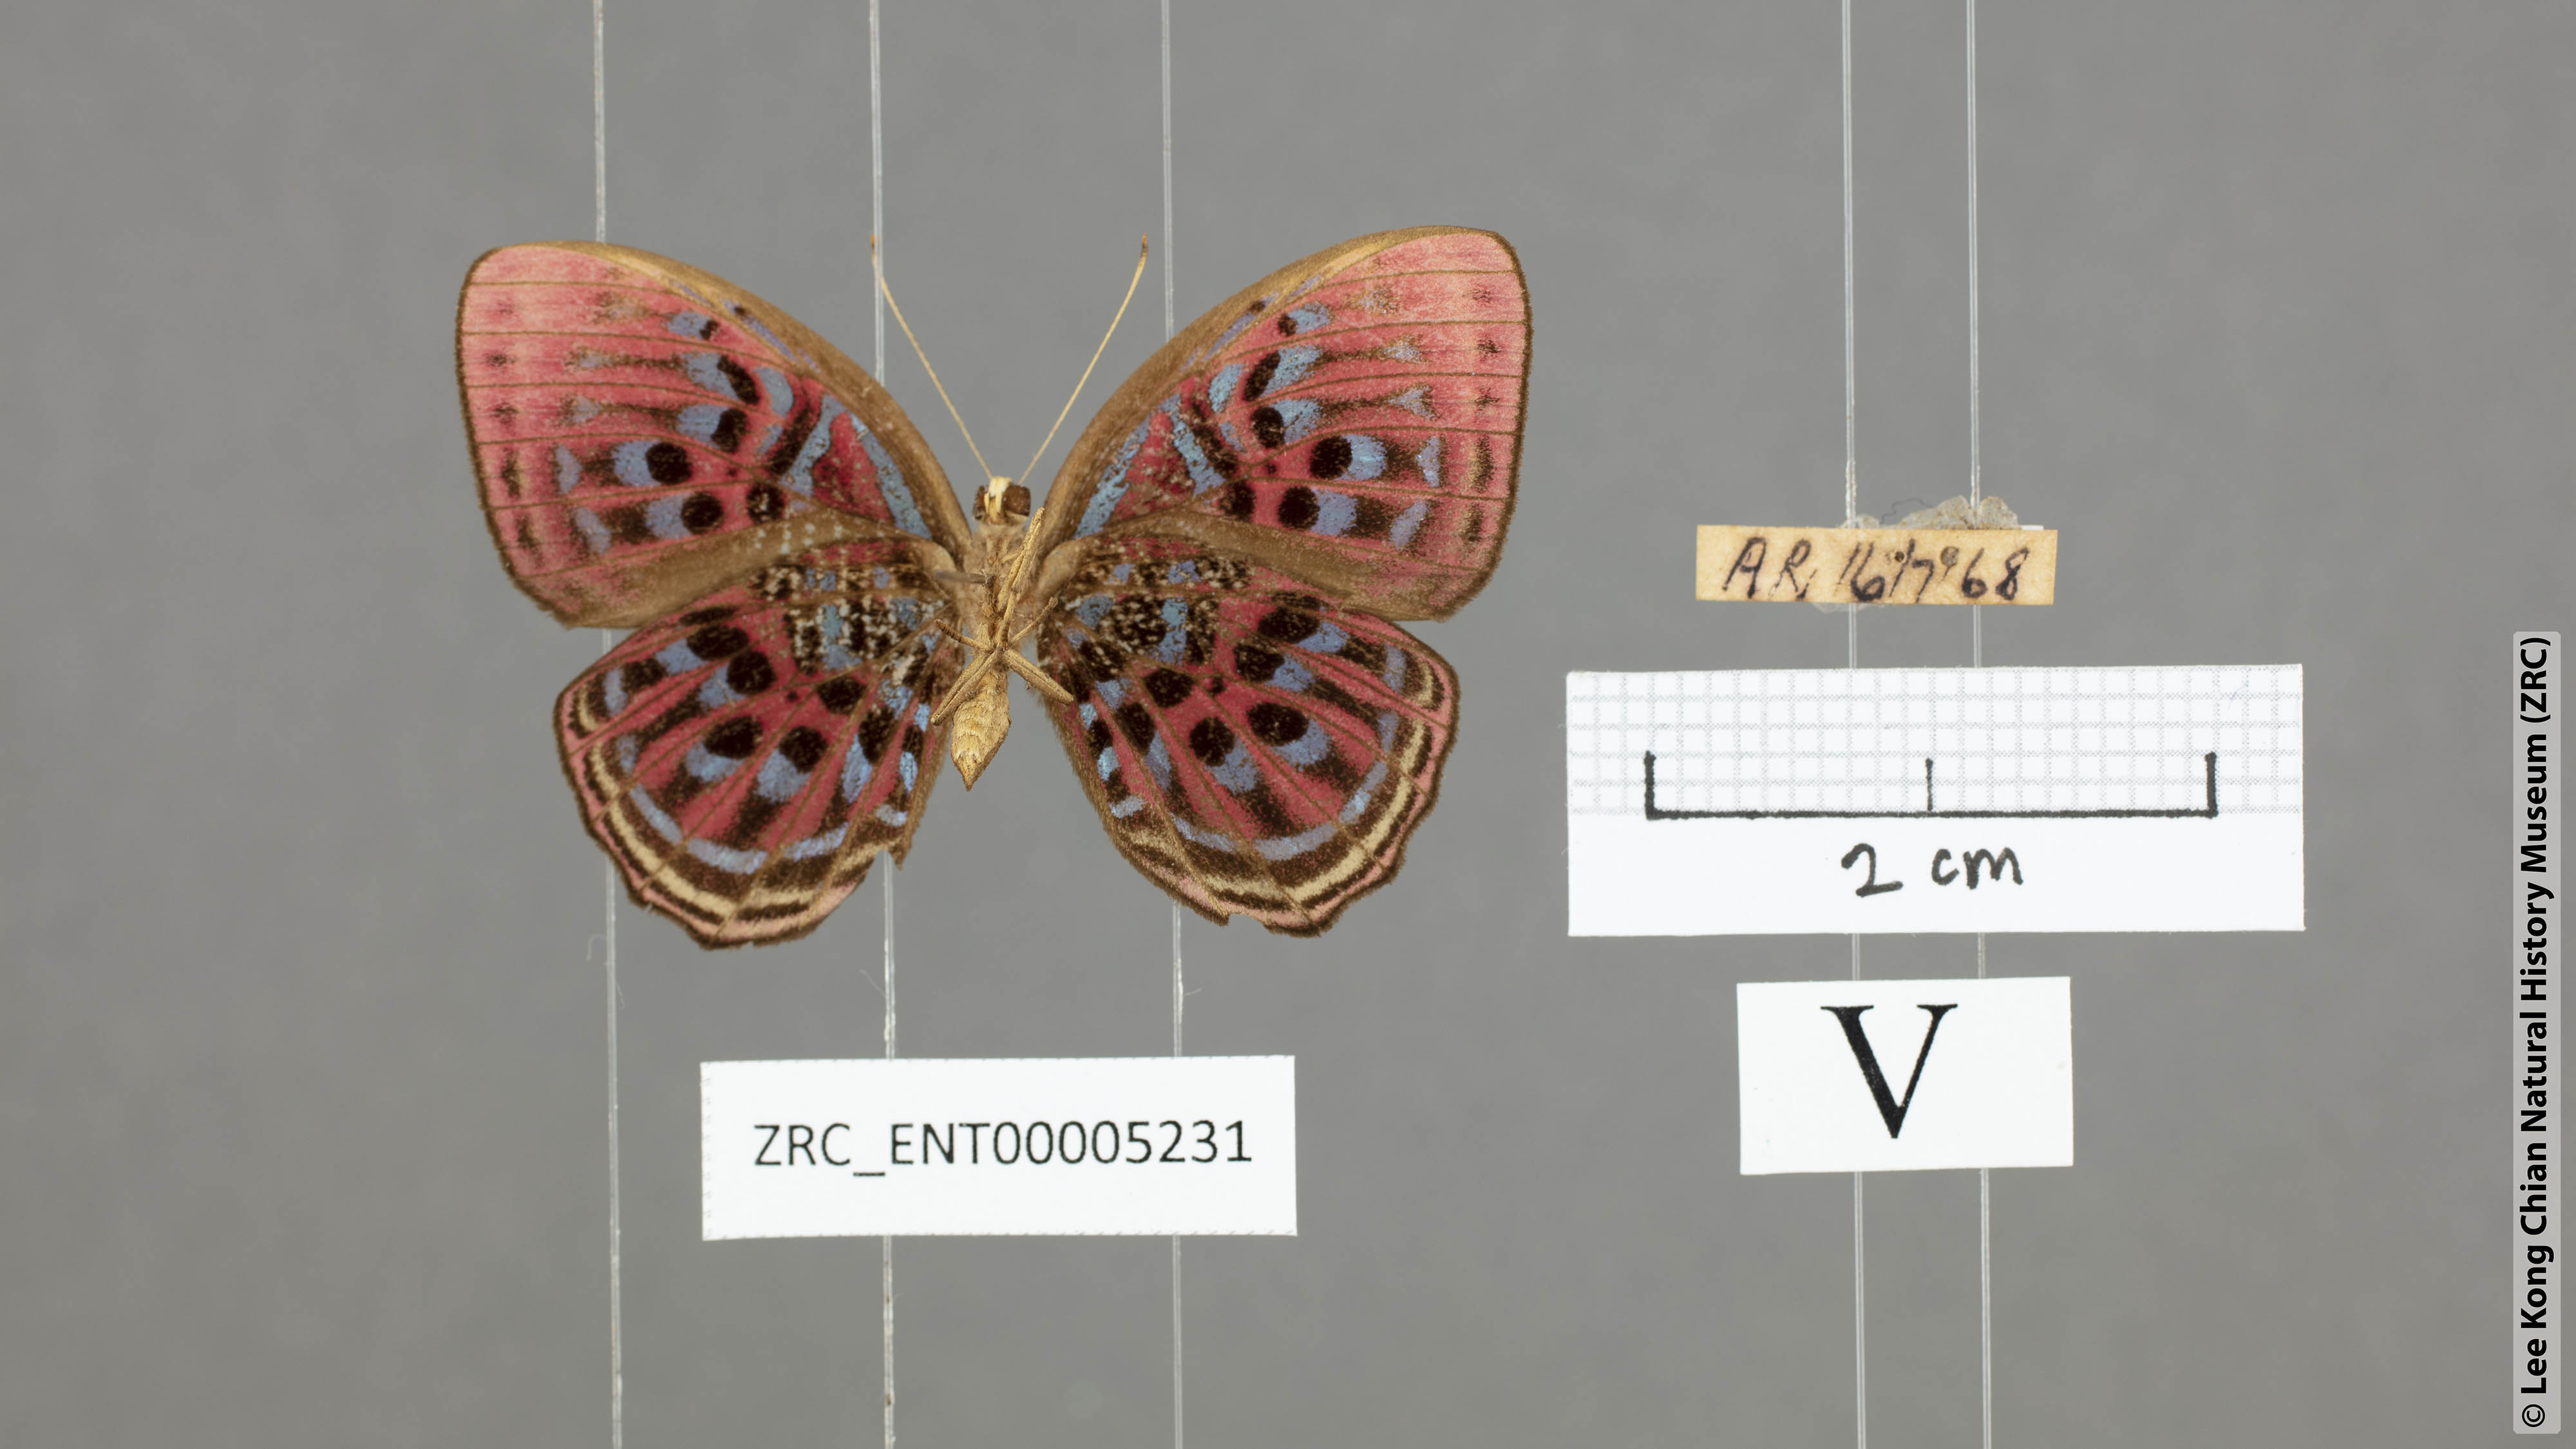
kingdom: Animalia
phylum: Arthropoda
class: Insecta
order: Lepidoptera
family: Riodinidae
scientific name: Riodinidae
